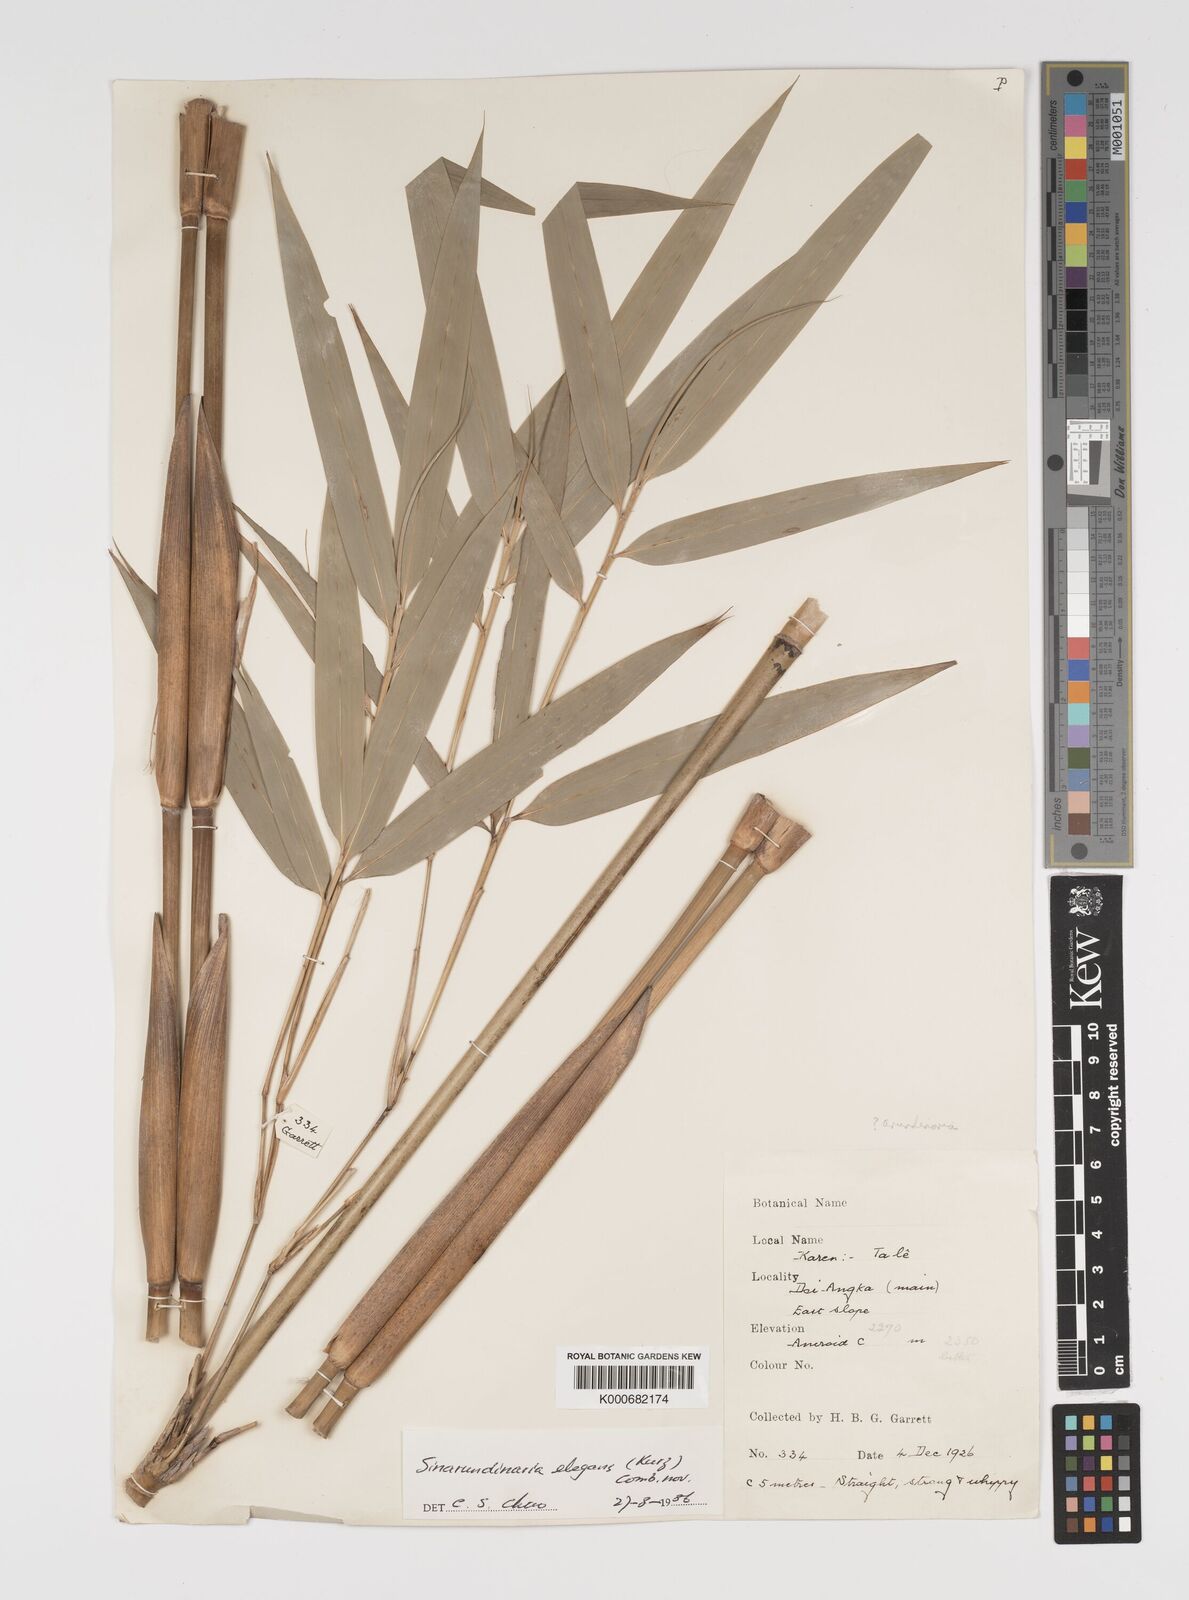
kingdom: Plantae
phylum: Tracheophyta
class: Liliopsida
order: Poales
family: Poaceae
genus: Yushania
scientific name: Yushania schmidiana
